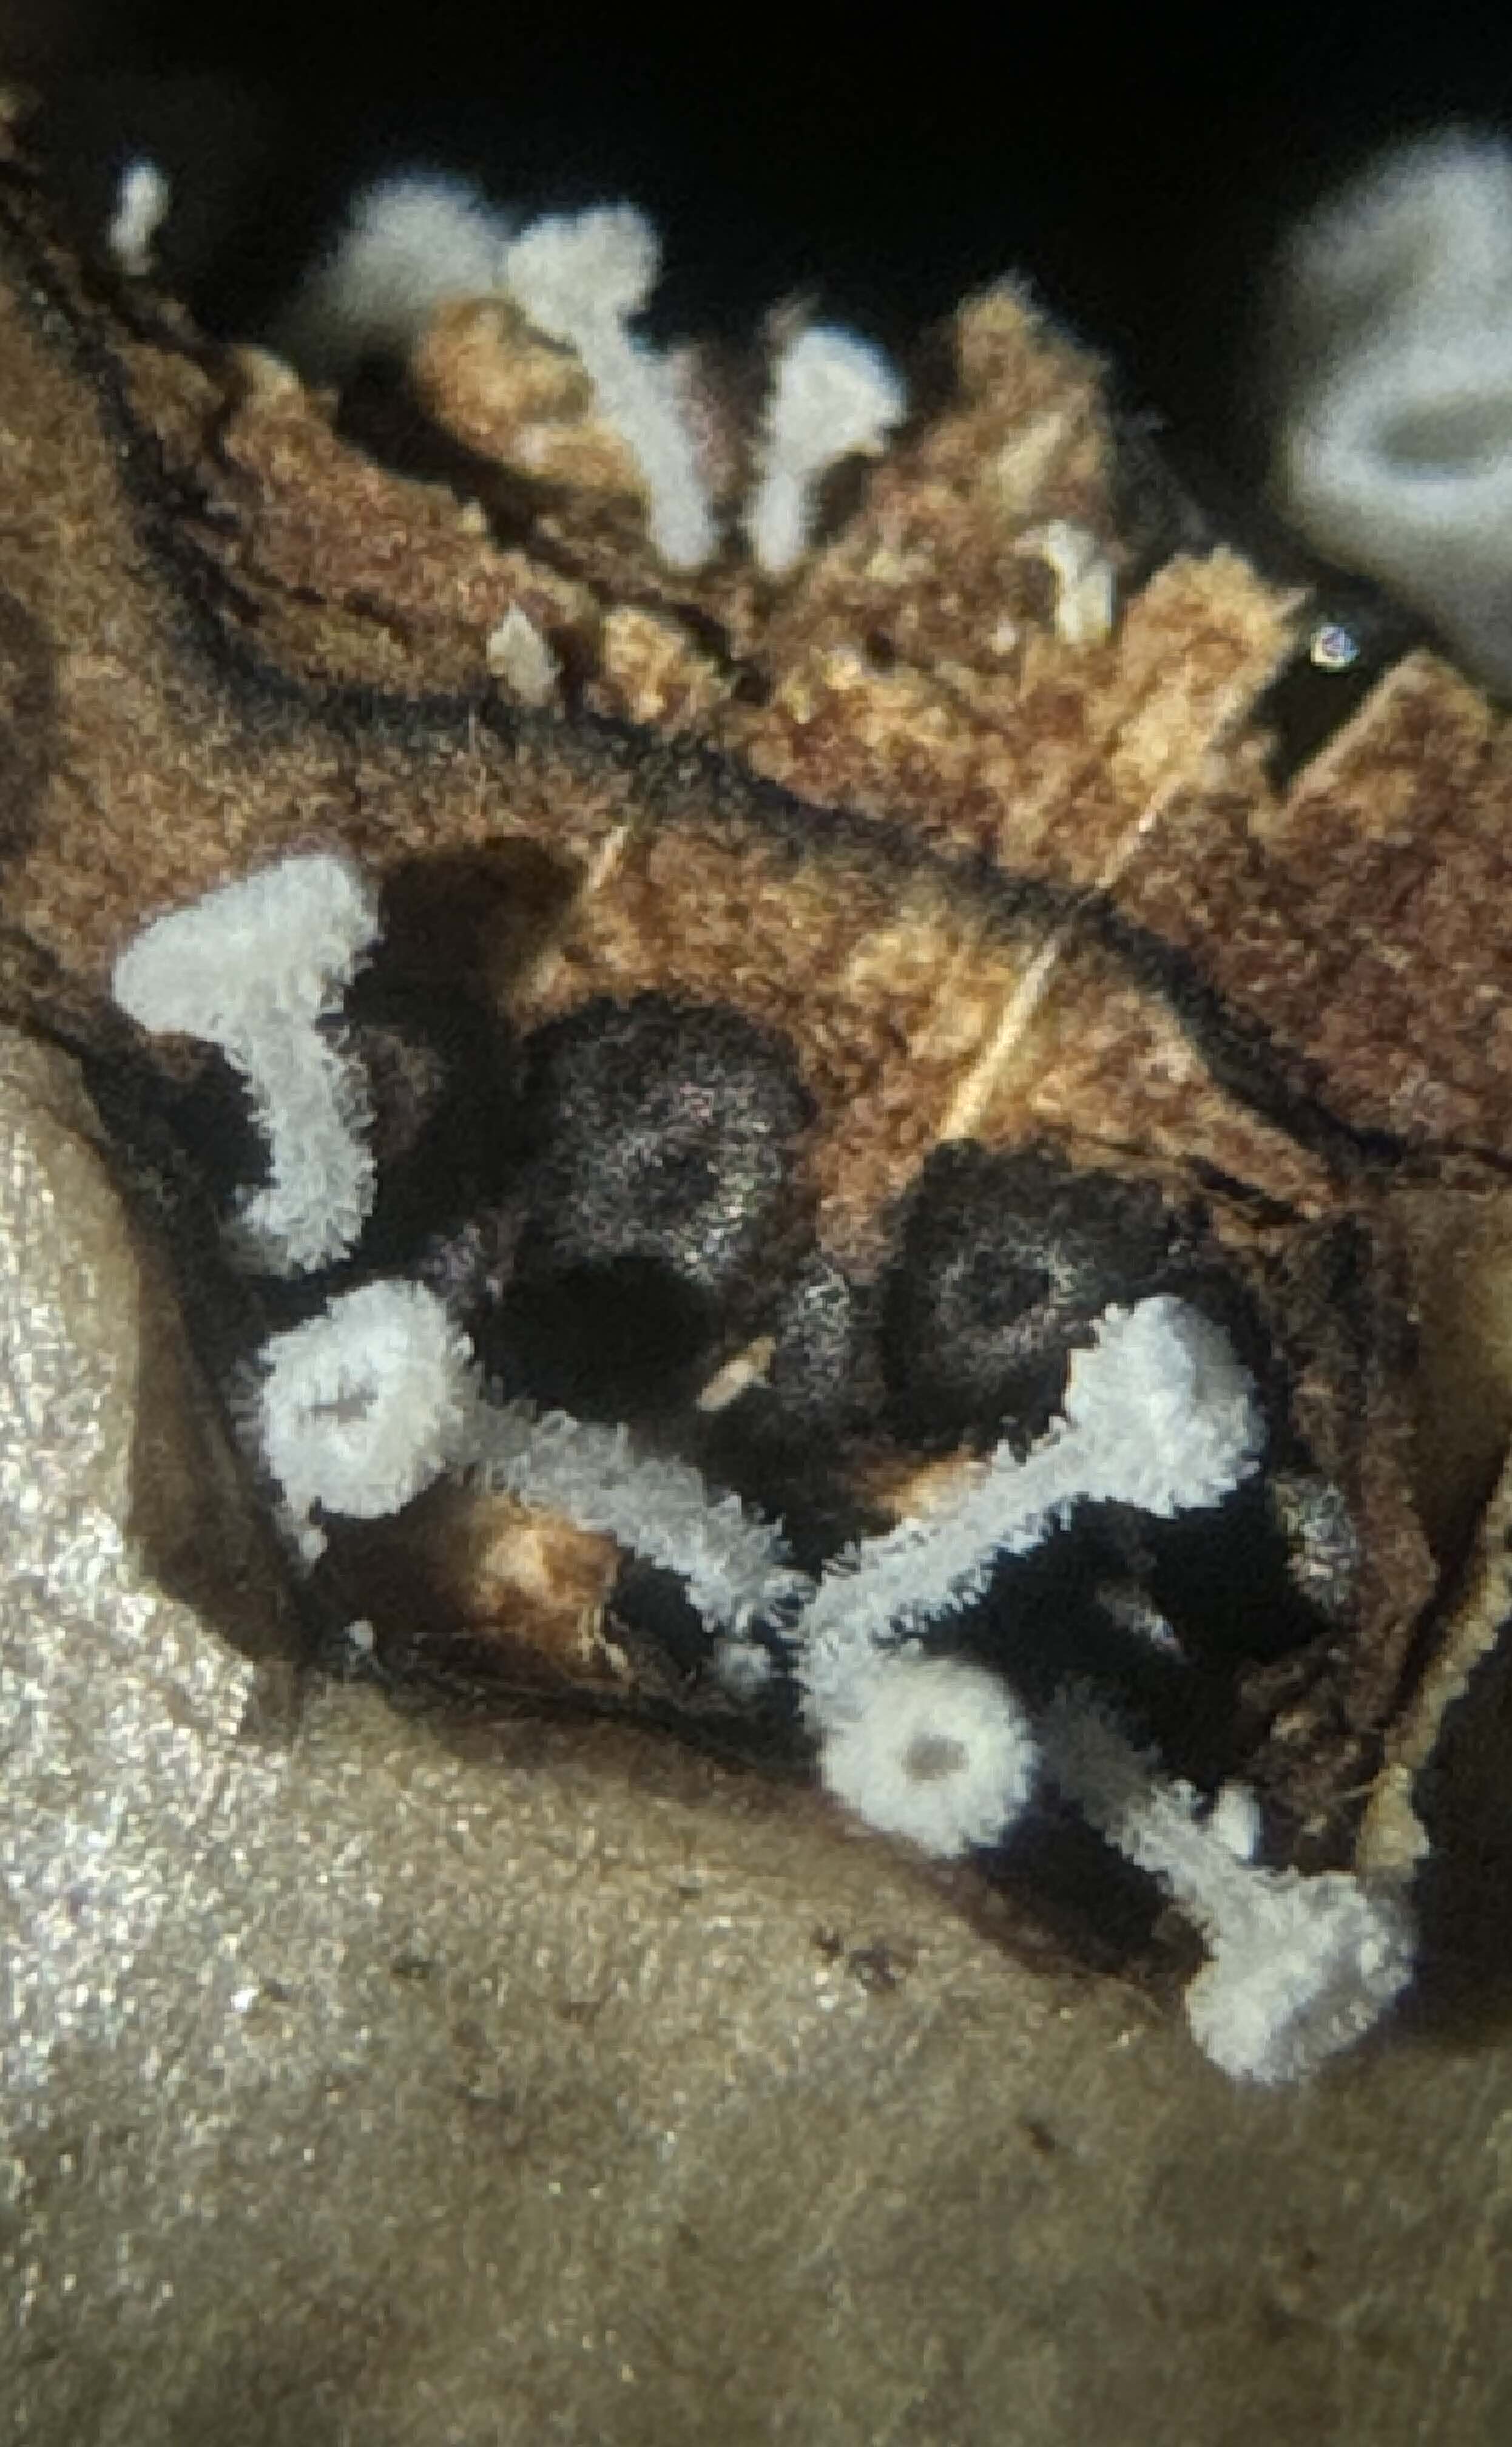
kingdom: Fungi
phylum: Ascomycota
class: Leotiomycetes
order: Helotiales
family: Lachnaceae
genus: Lachnum
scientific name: Lachnum
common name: frynseskive
